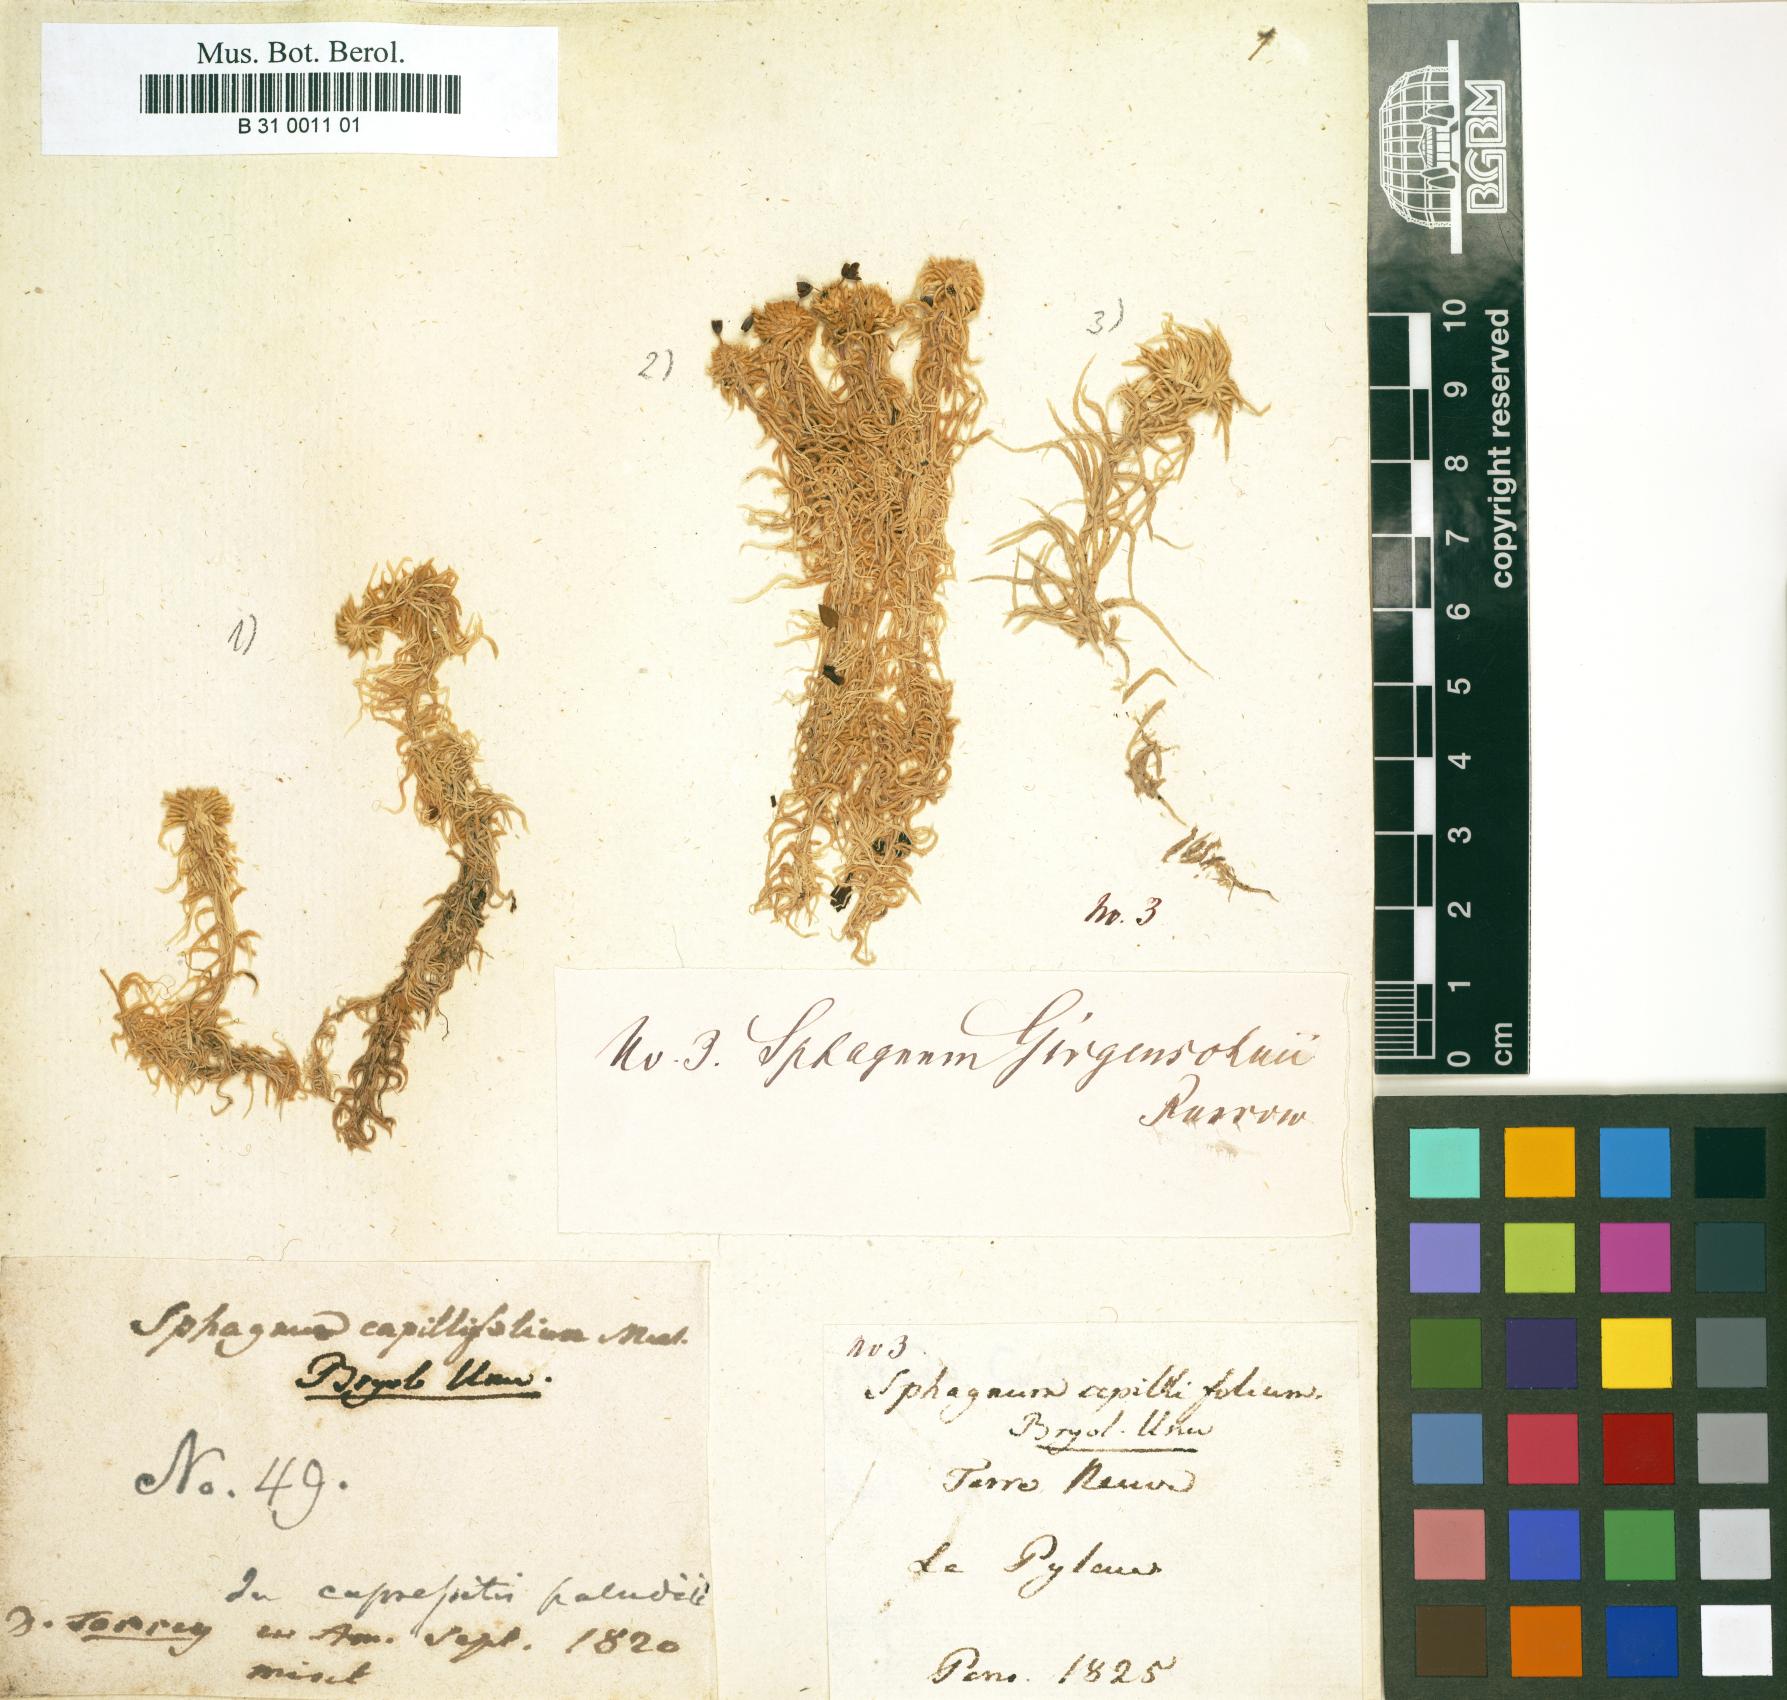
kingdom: Plantae
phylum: Bryophyta
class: Sphagnopsida
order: Sphagnales
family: Sphagnaceae
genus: Sphagnum
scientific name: Sphagnum capillifolium
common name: Small red peat moss
